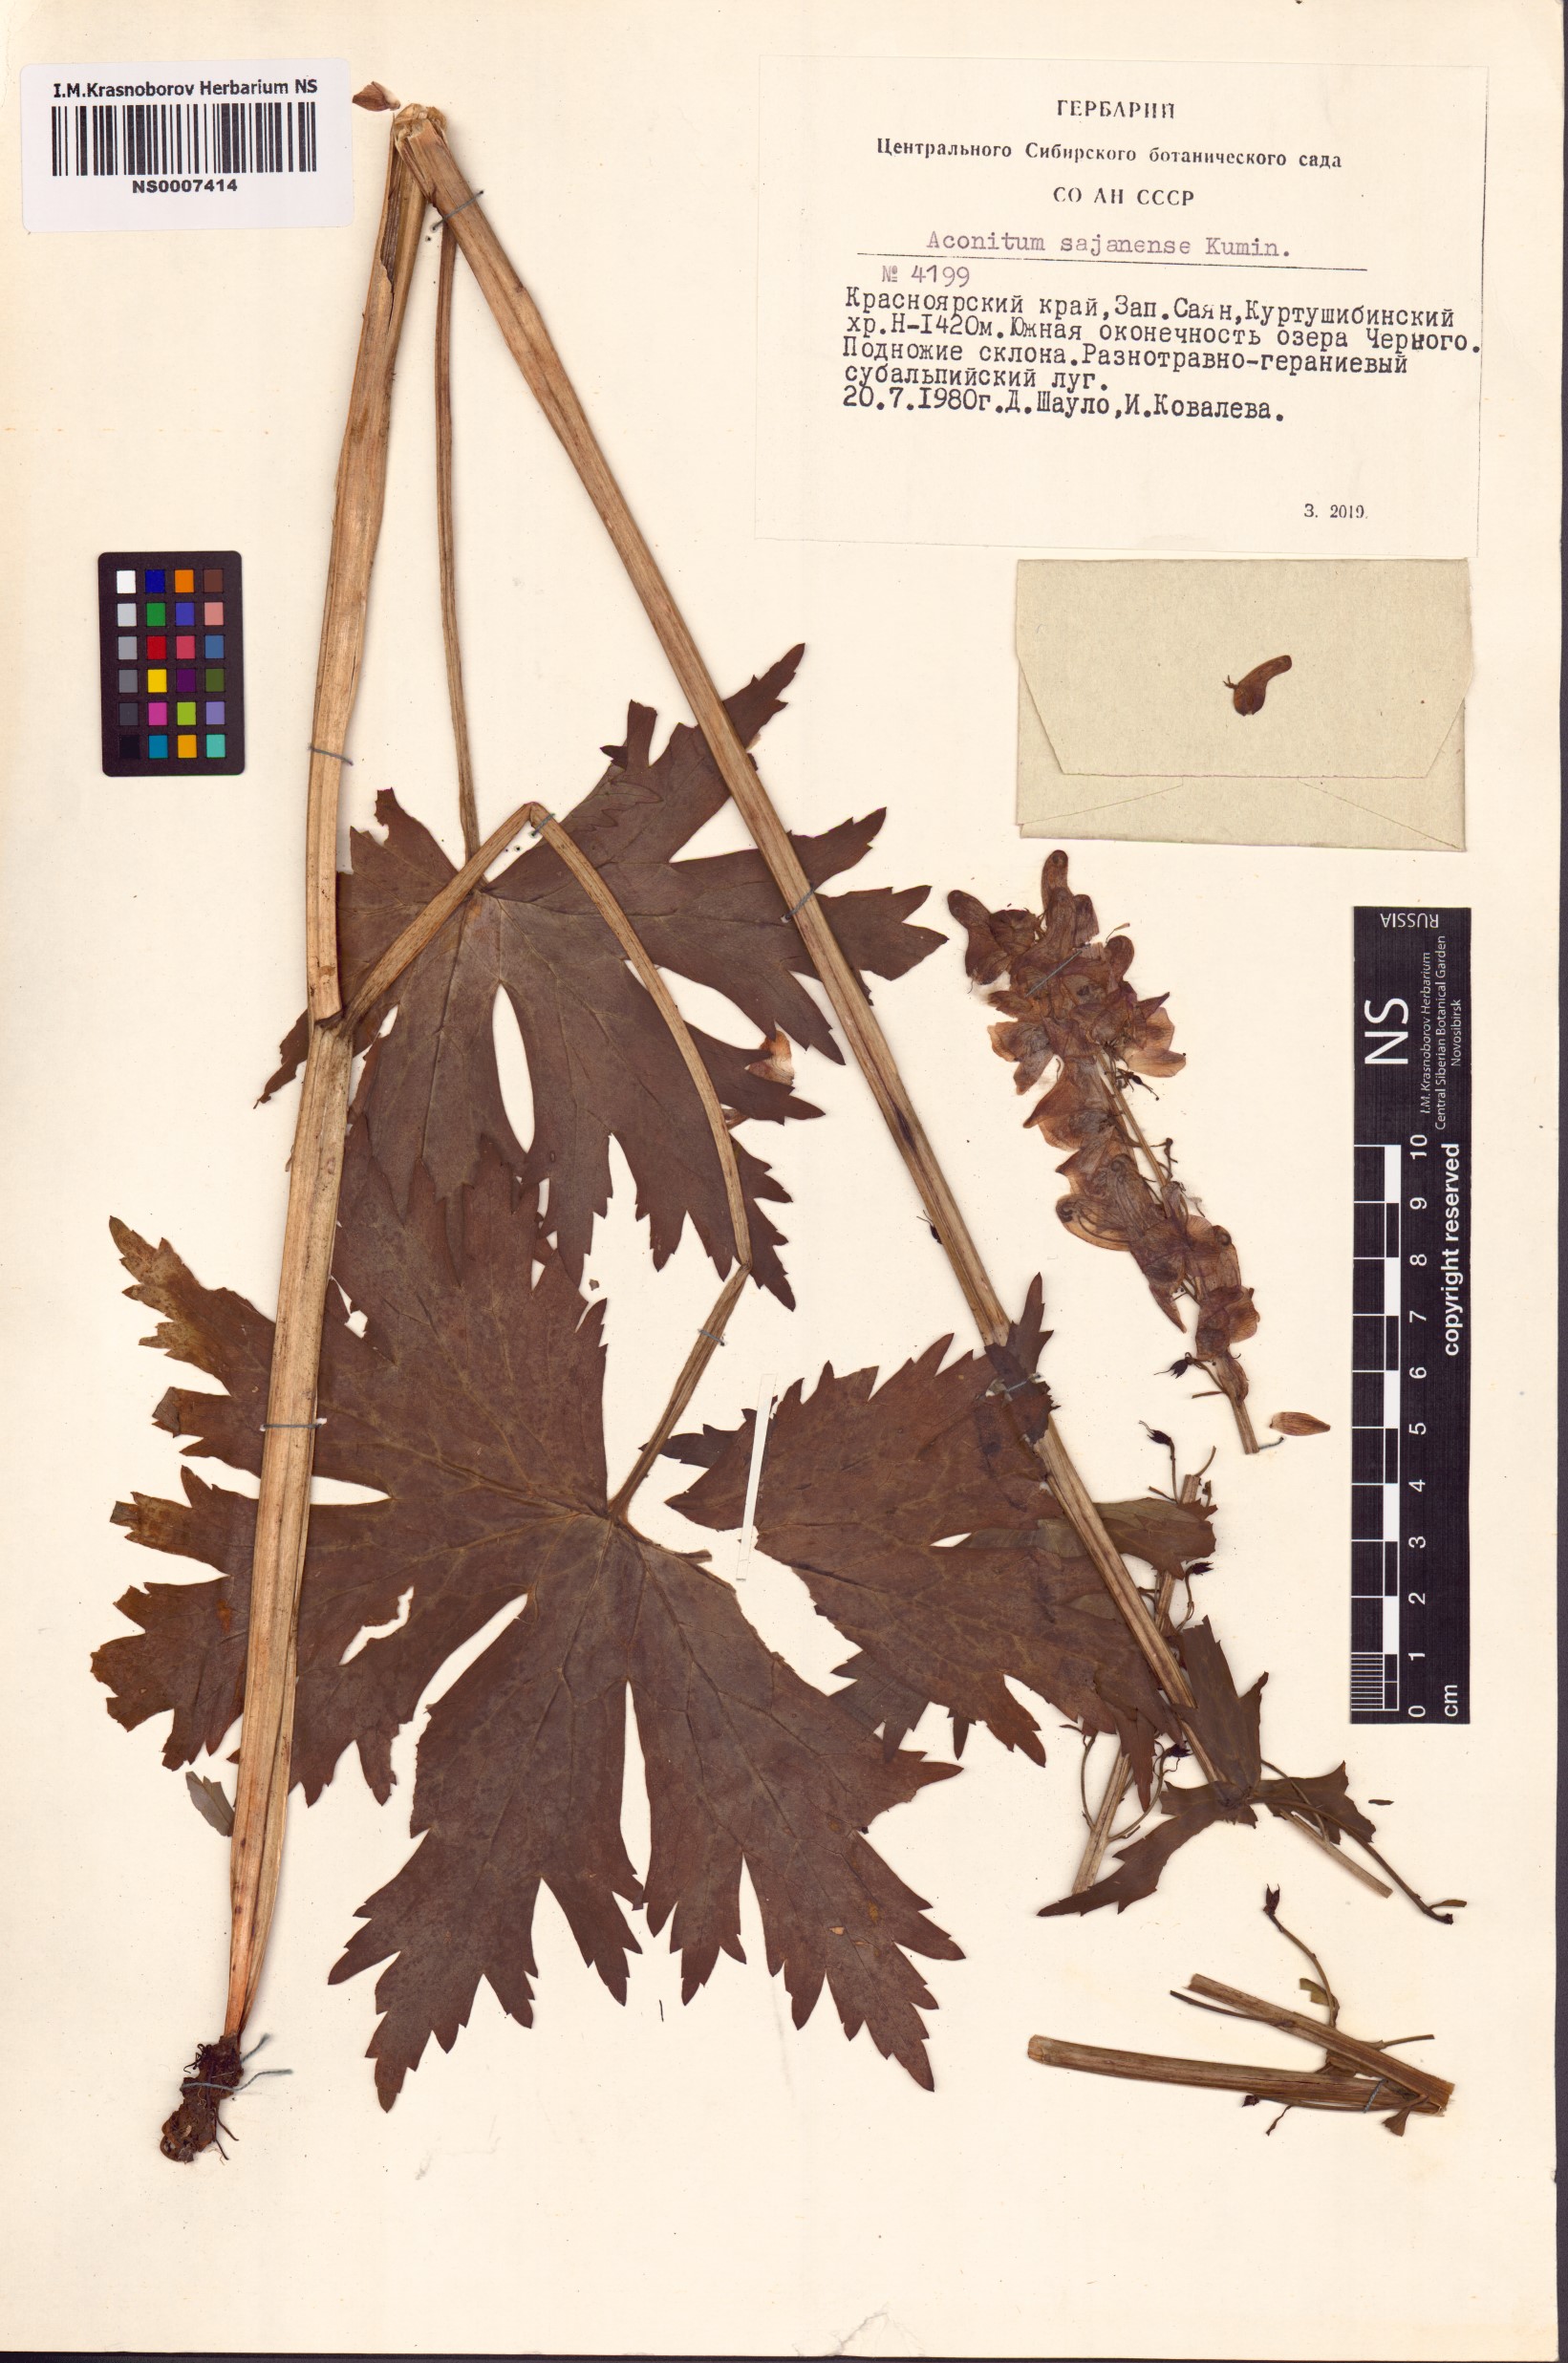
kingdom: Plantae
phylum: Tracheophyta
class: Magnoliopsida
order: Ranunculales
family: Ranunculaceae
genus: Aconitum
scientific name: Aconitum sajanense
